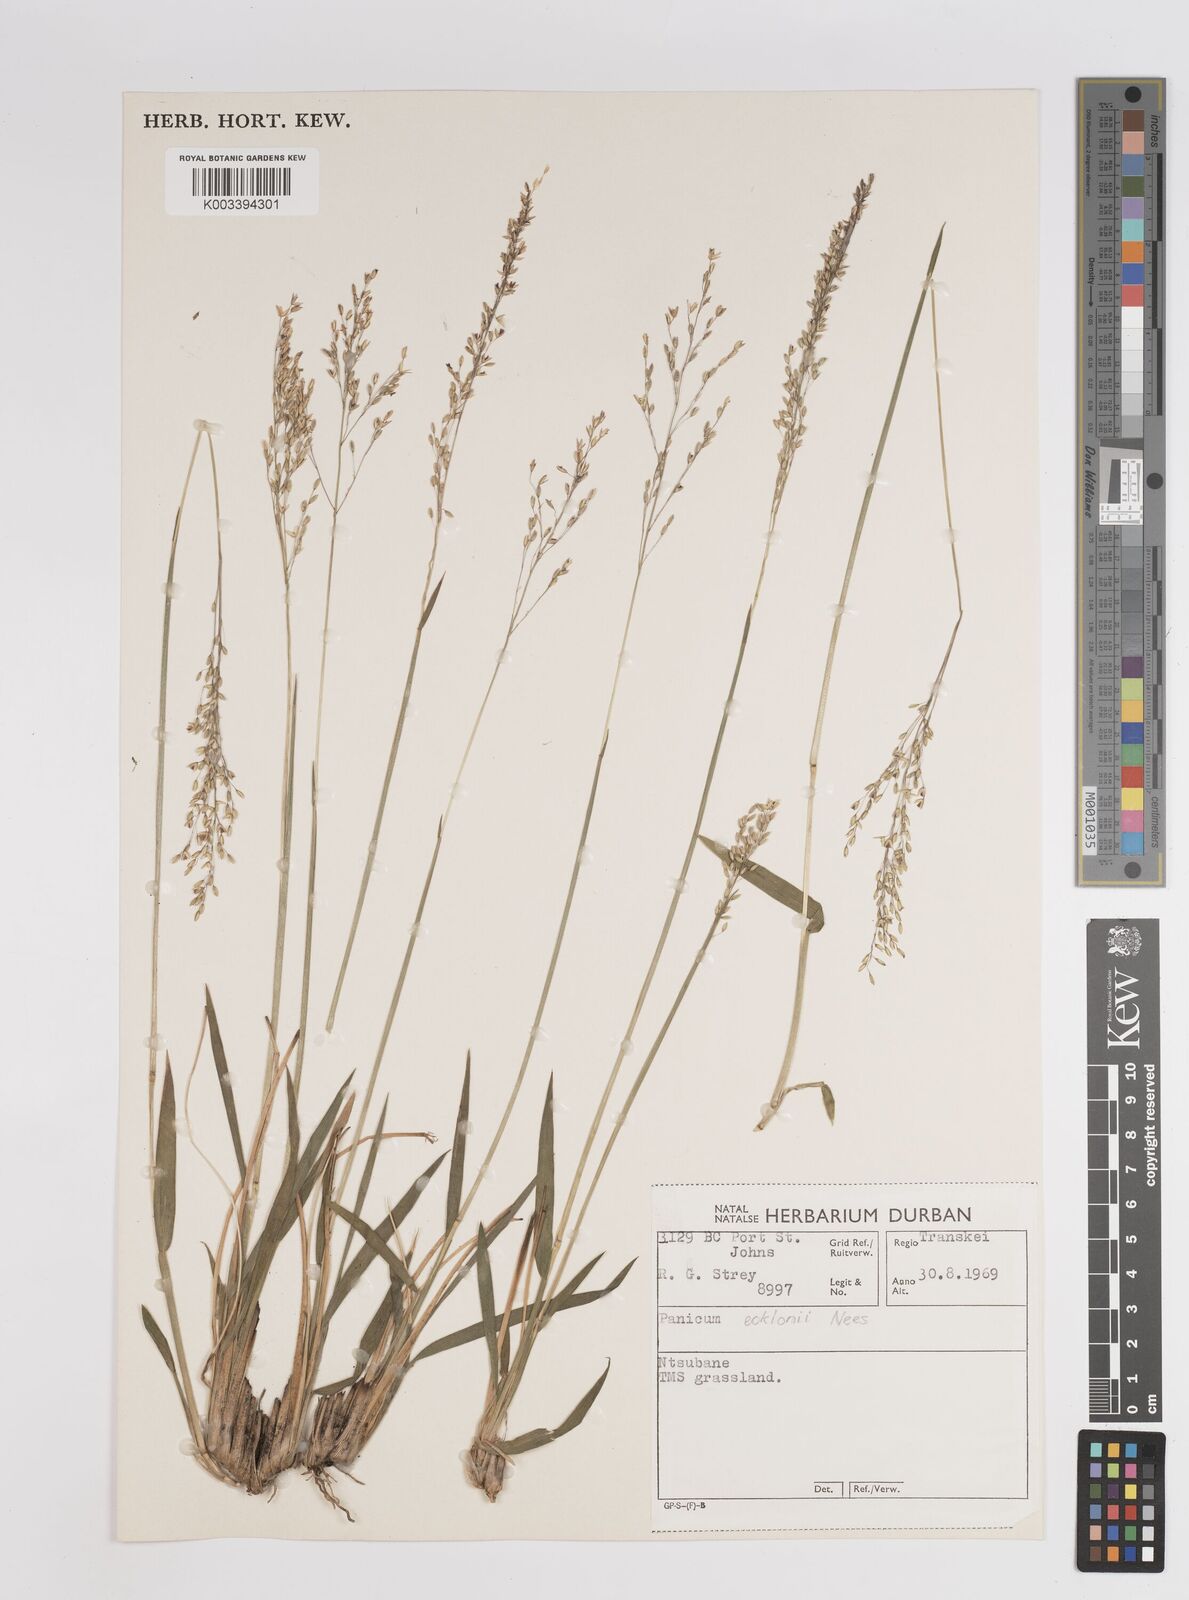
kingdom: Plantae
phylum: Tracheophyta
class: Liliopsida
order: Poales
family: Poaceae
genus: Adenochloa
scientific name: Adenochloa ecklonii
